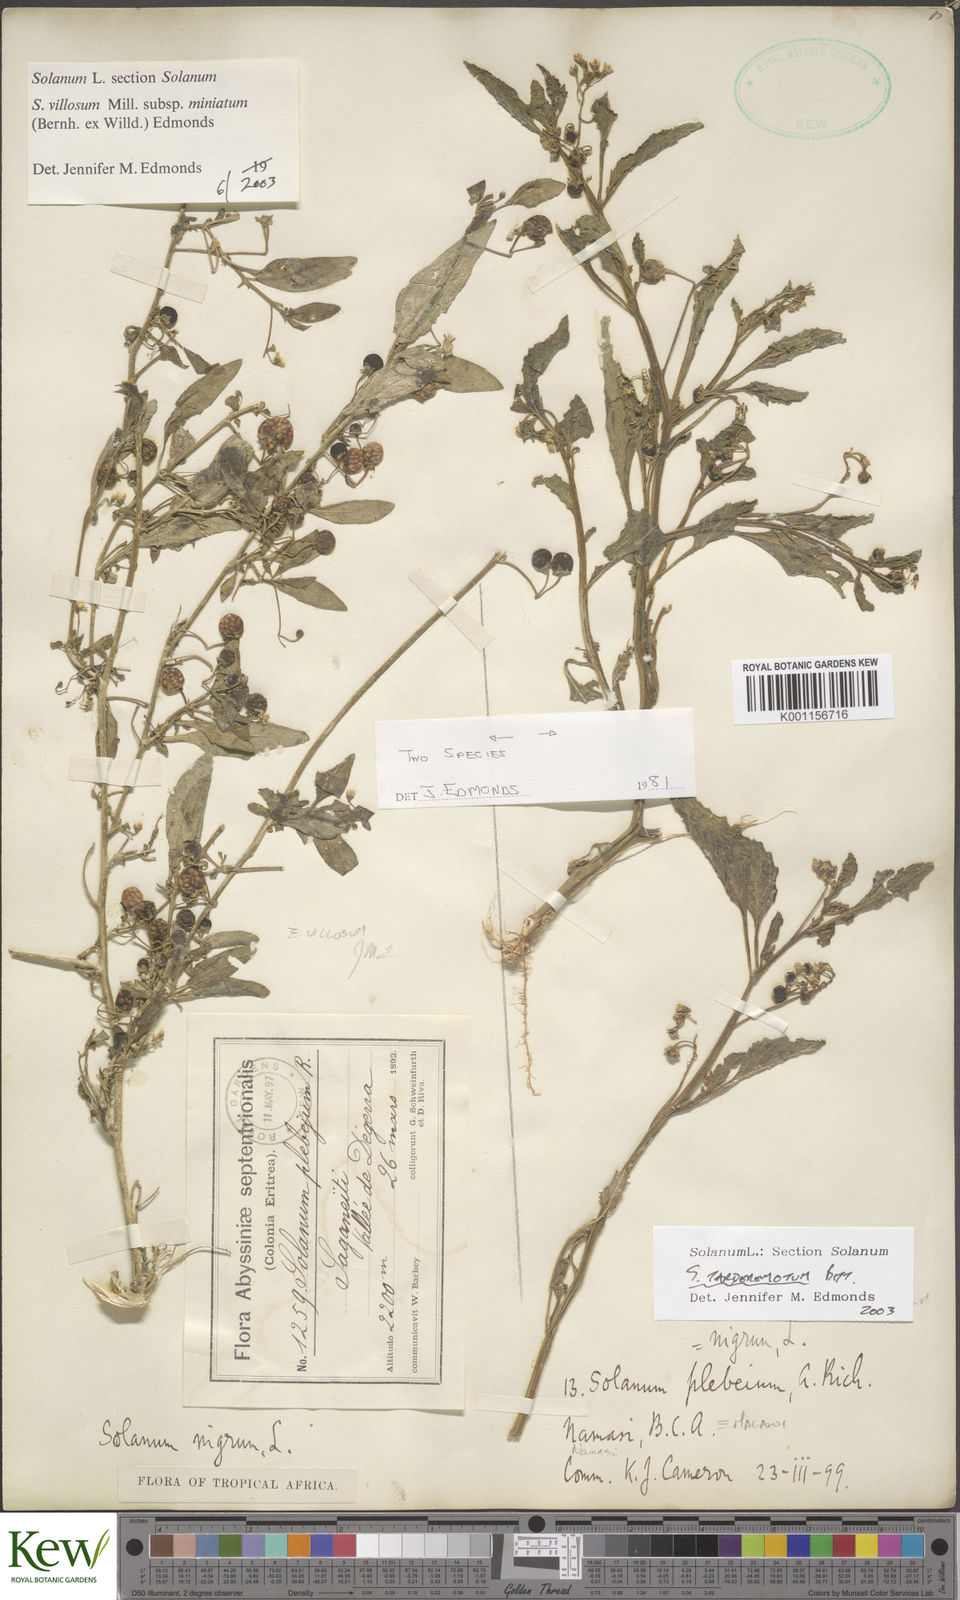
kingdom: Plantae
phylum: Tracheophyta
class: Magnoliopsida
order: Solanales
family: Solanaceae
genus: Solanum
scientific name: Solanum tarderemotum
